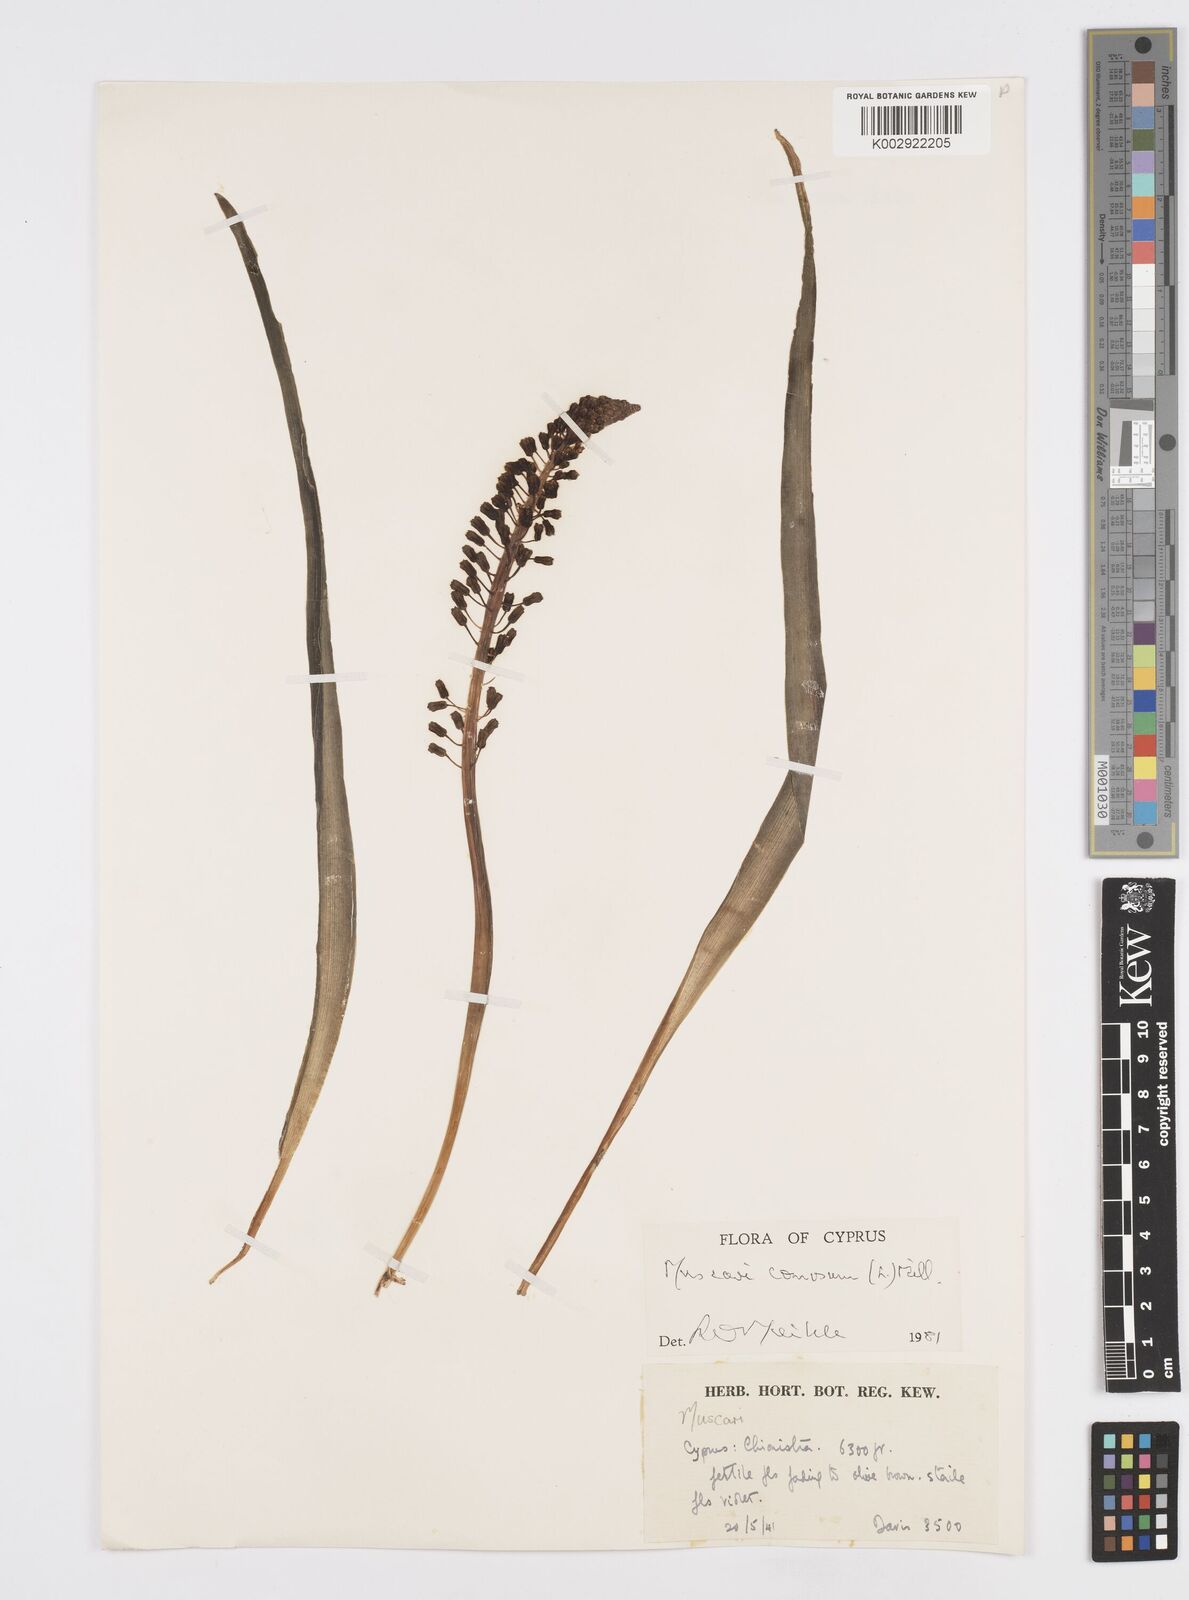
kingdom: Plantae
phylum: Tracheophyta
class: Liliopsida
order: Asparagales
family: Asparagaceae
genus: Muscari
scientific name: Muscari comosum
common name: Tassel hyacinth
